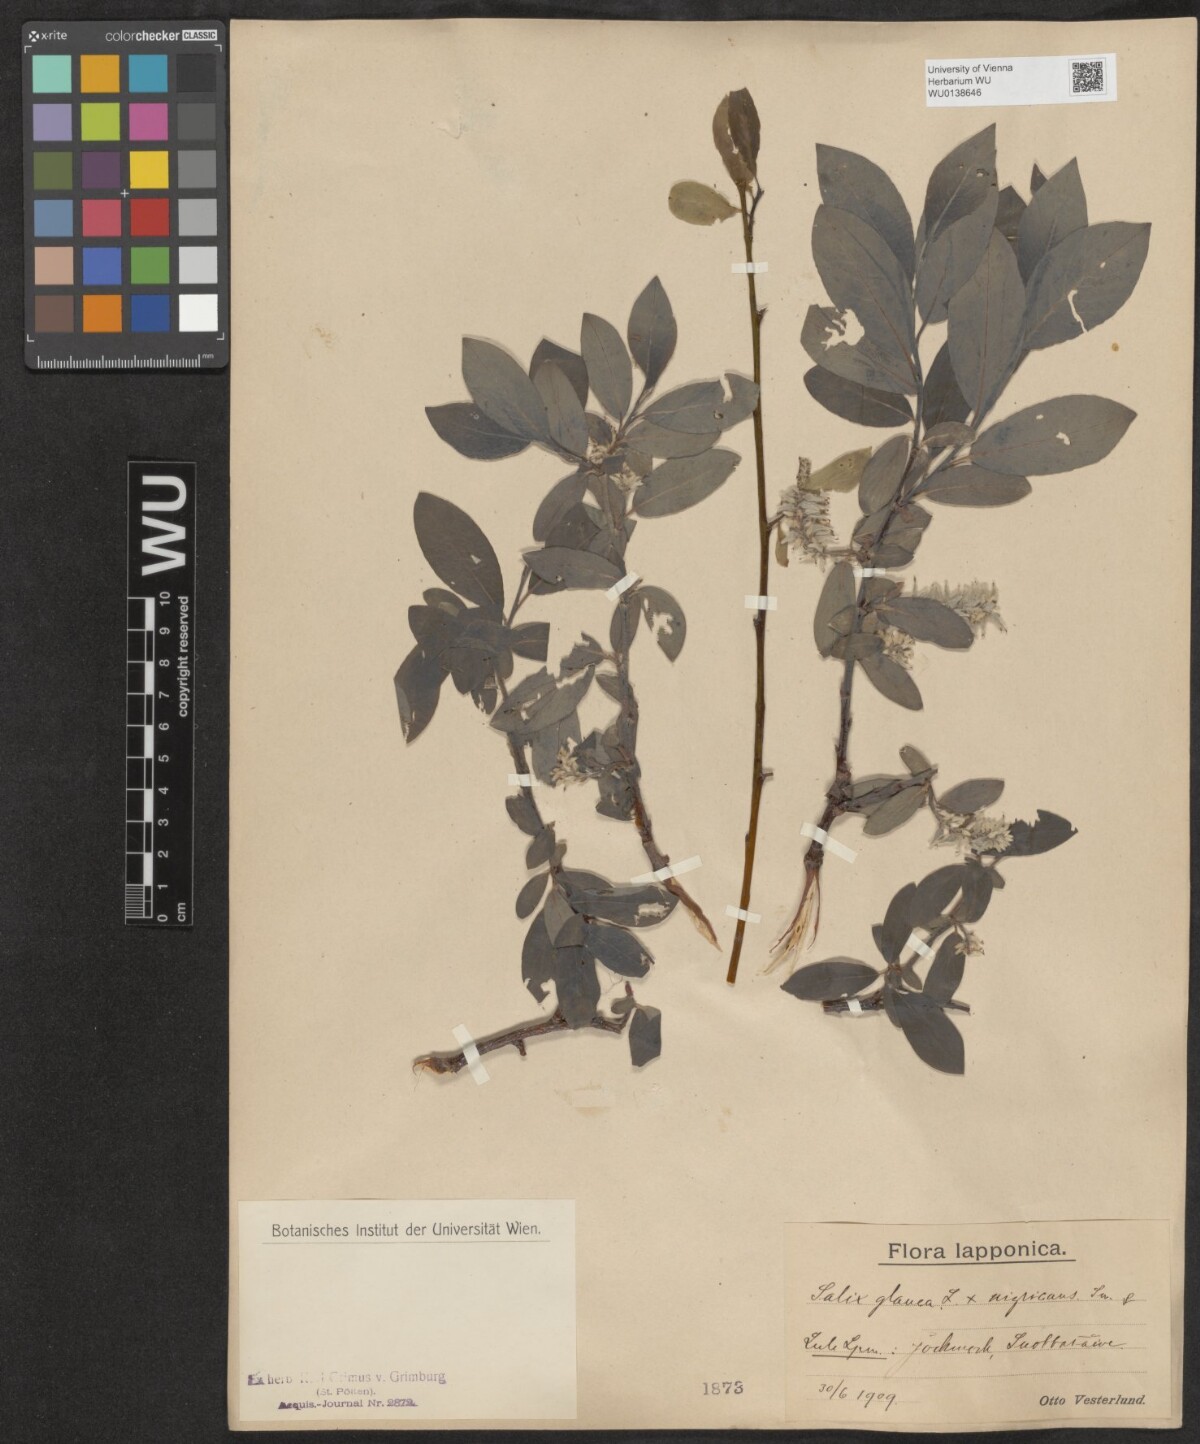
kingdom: Plantae
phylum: Tracheophyta
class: Magnoliopsida
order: Malpighiales
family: Salicaceae
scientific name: Salicaceae
